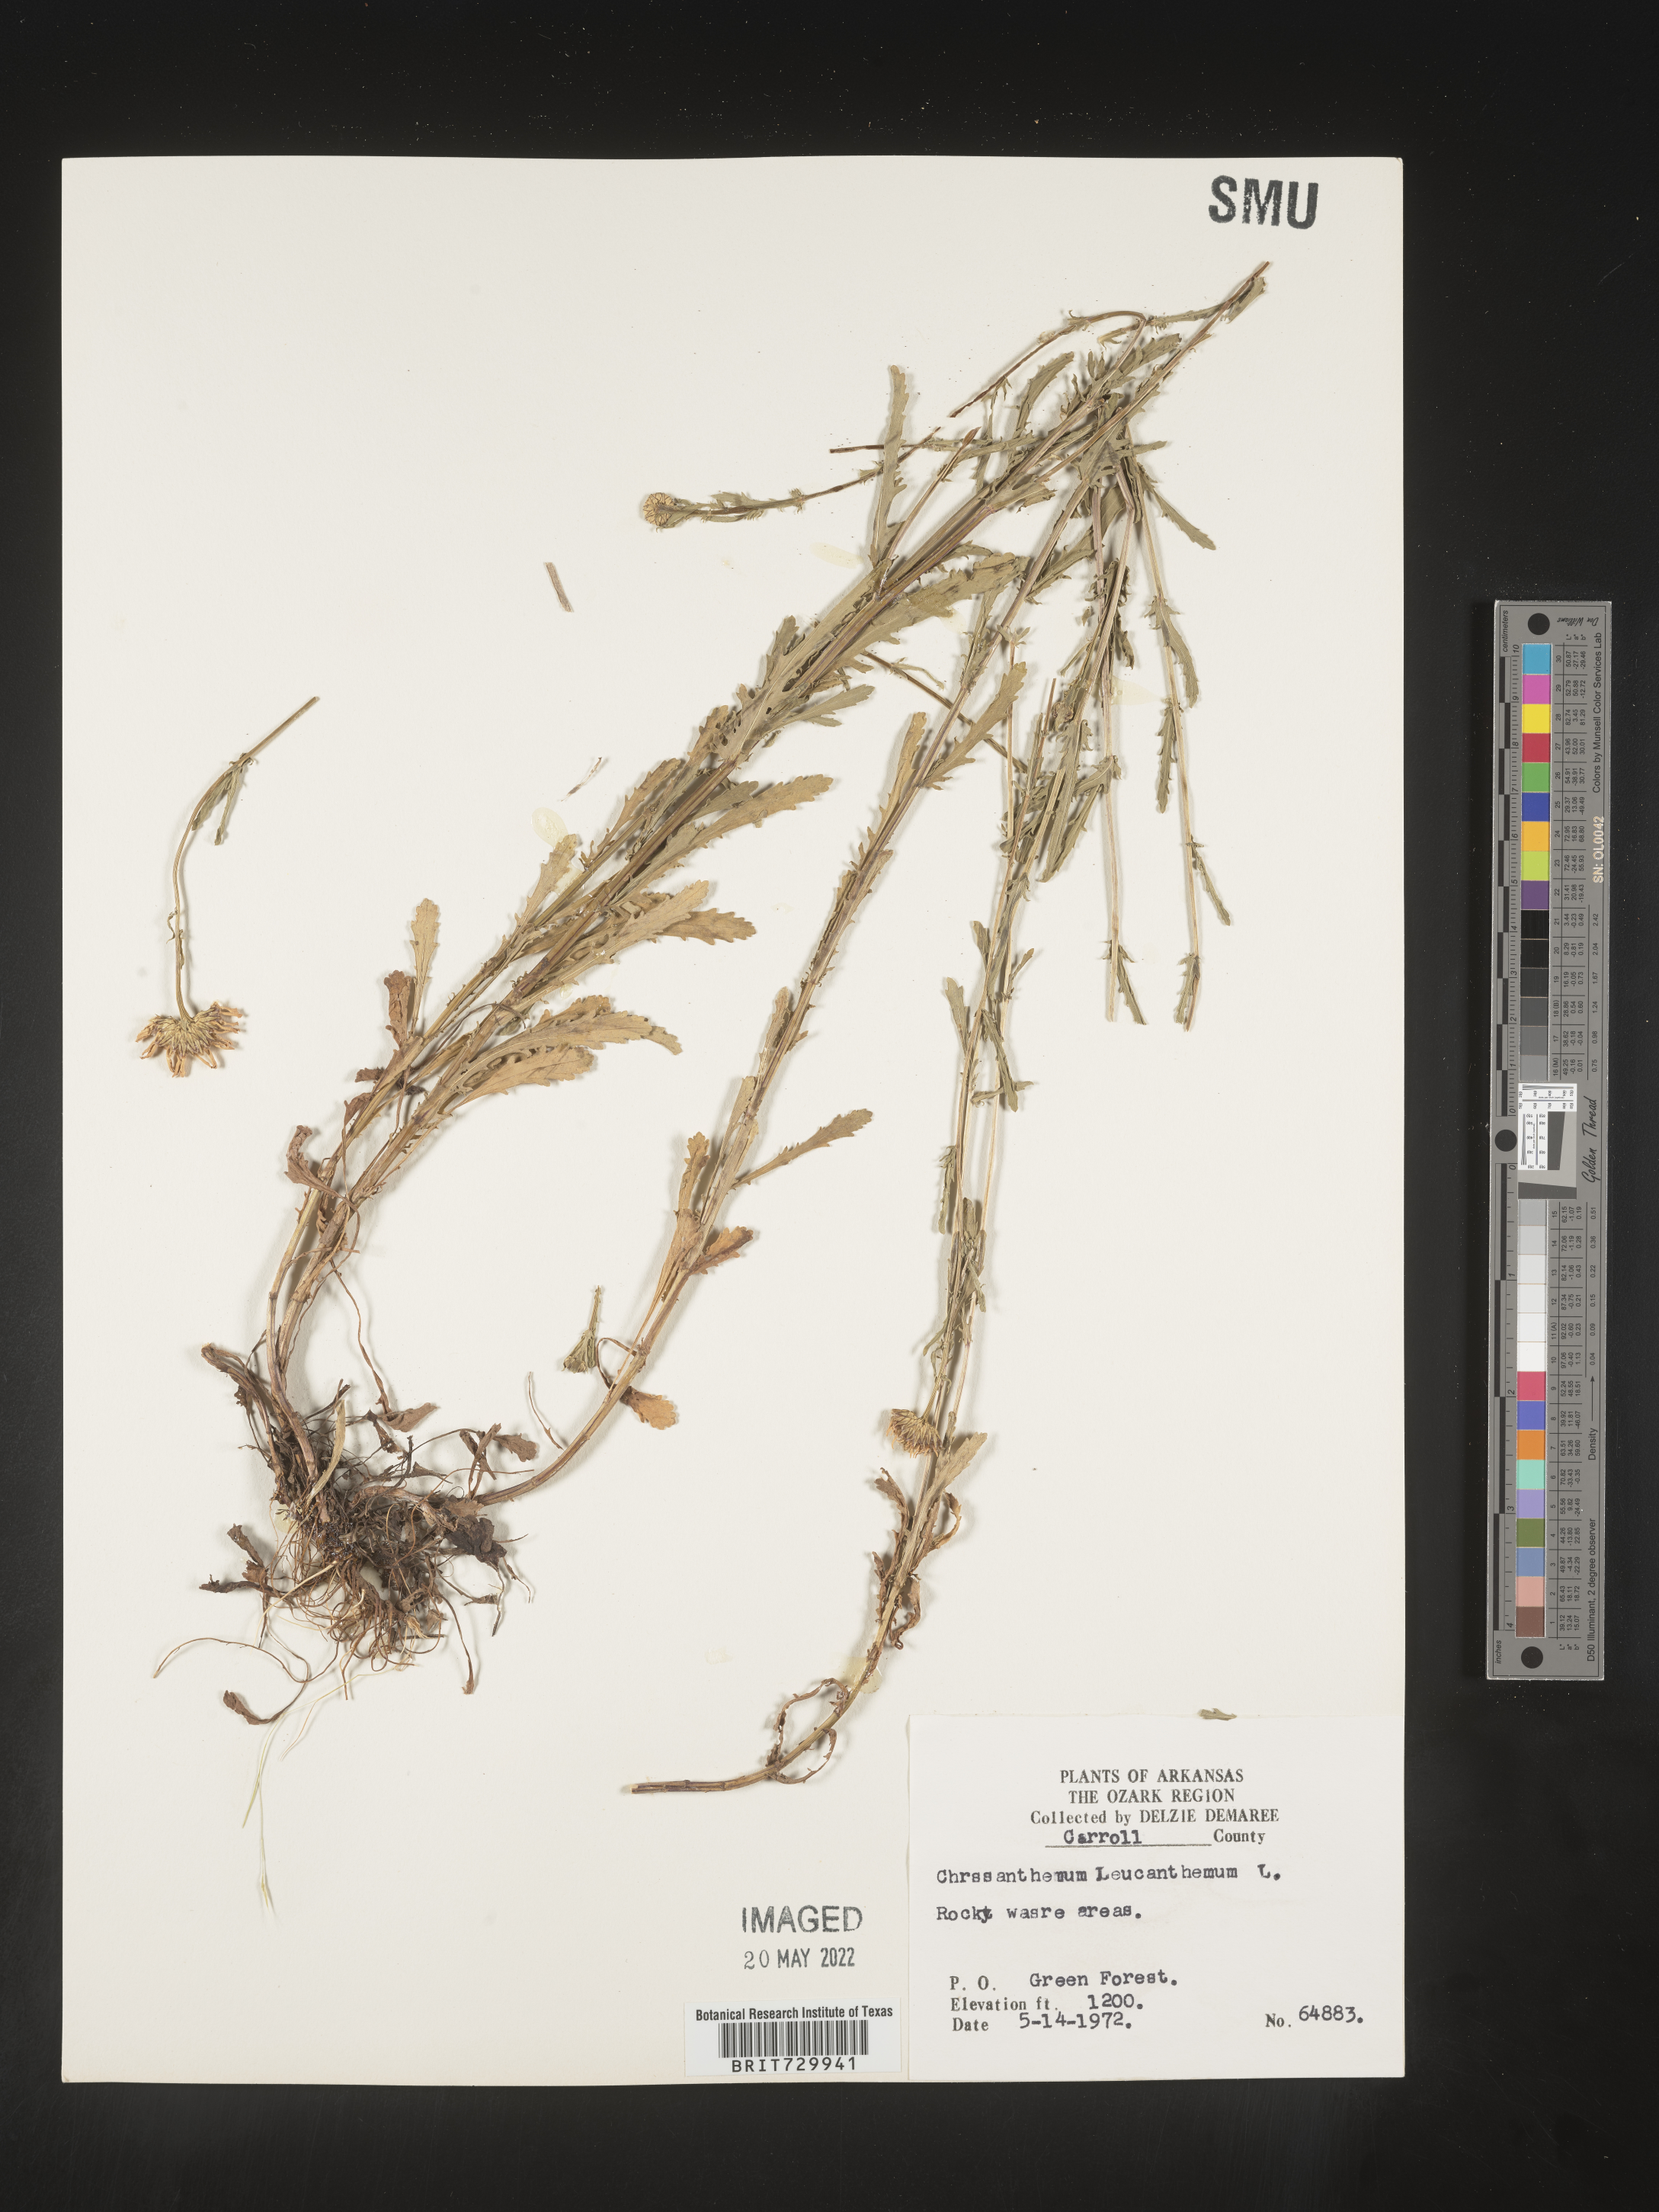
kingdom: Plantae
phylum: Tracheophyta
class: Magnoliopsida
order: Asterales
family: Asteraceae
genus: Leucanthemum
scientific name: Leucanthemum vulgare
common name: Oxeye daisy
